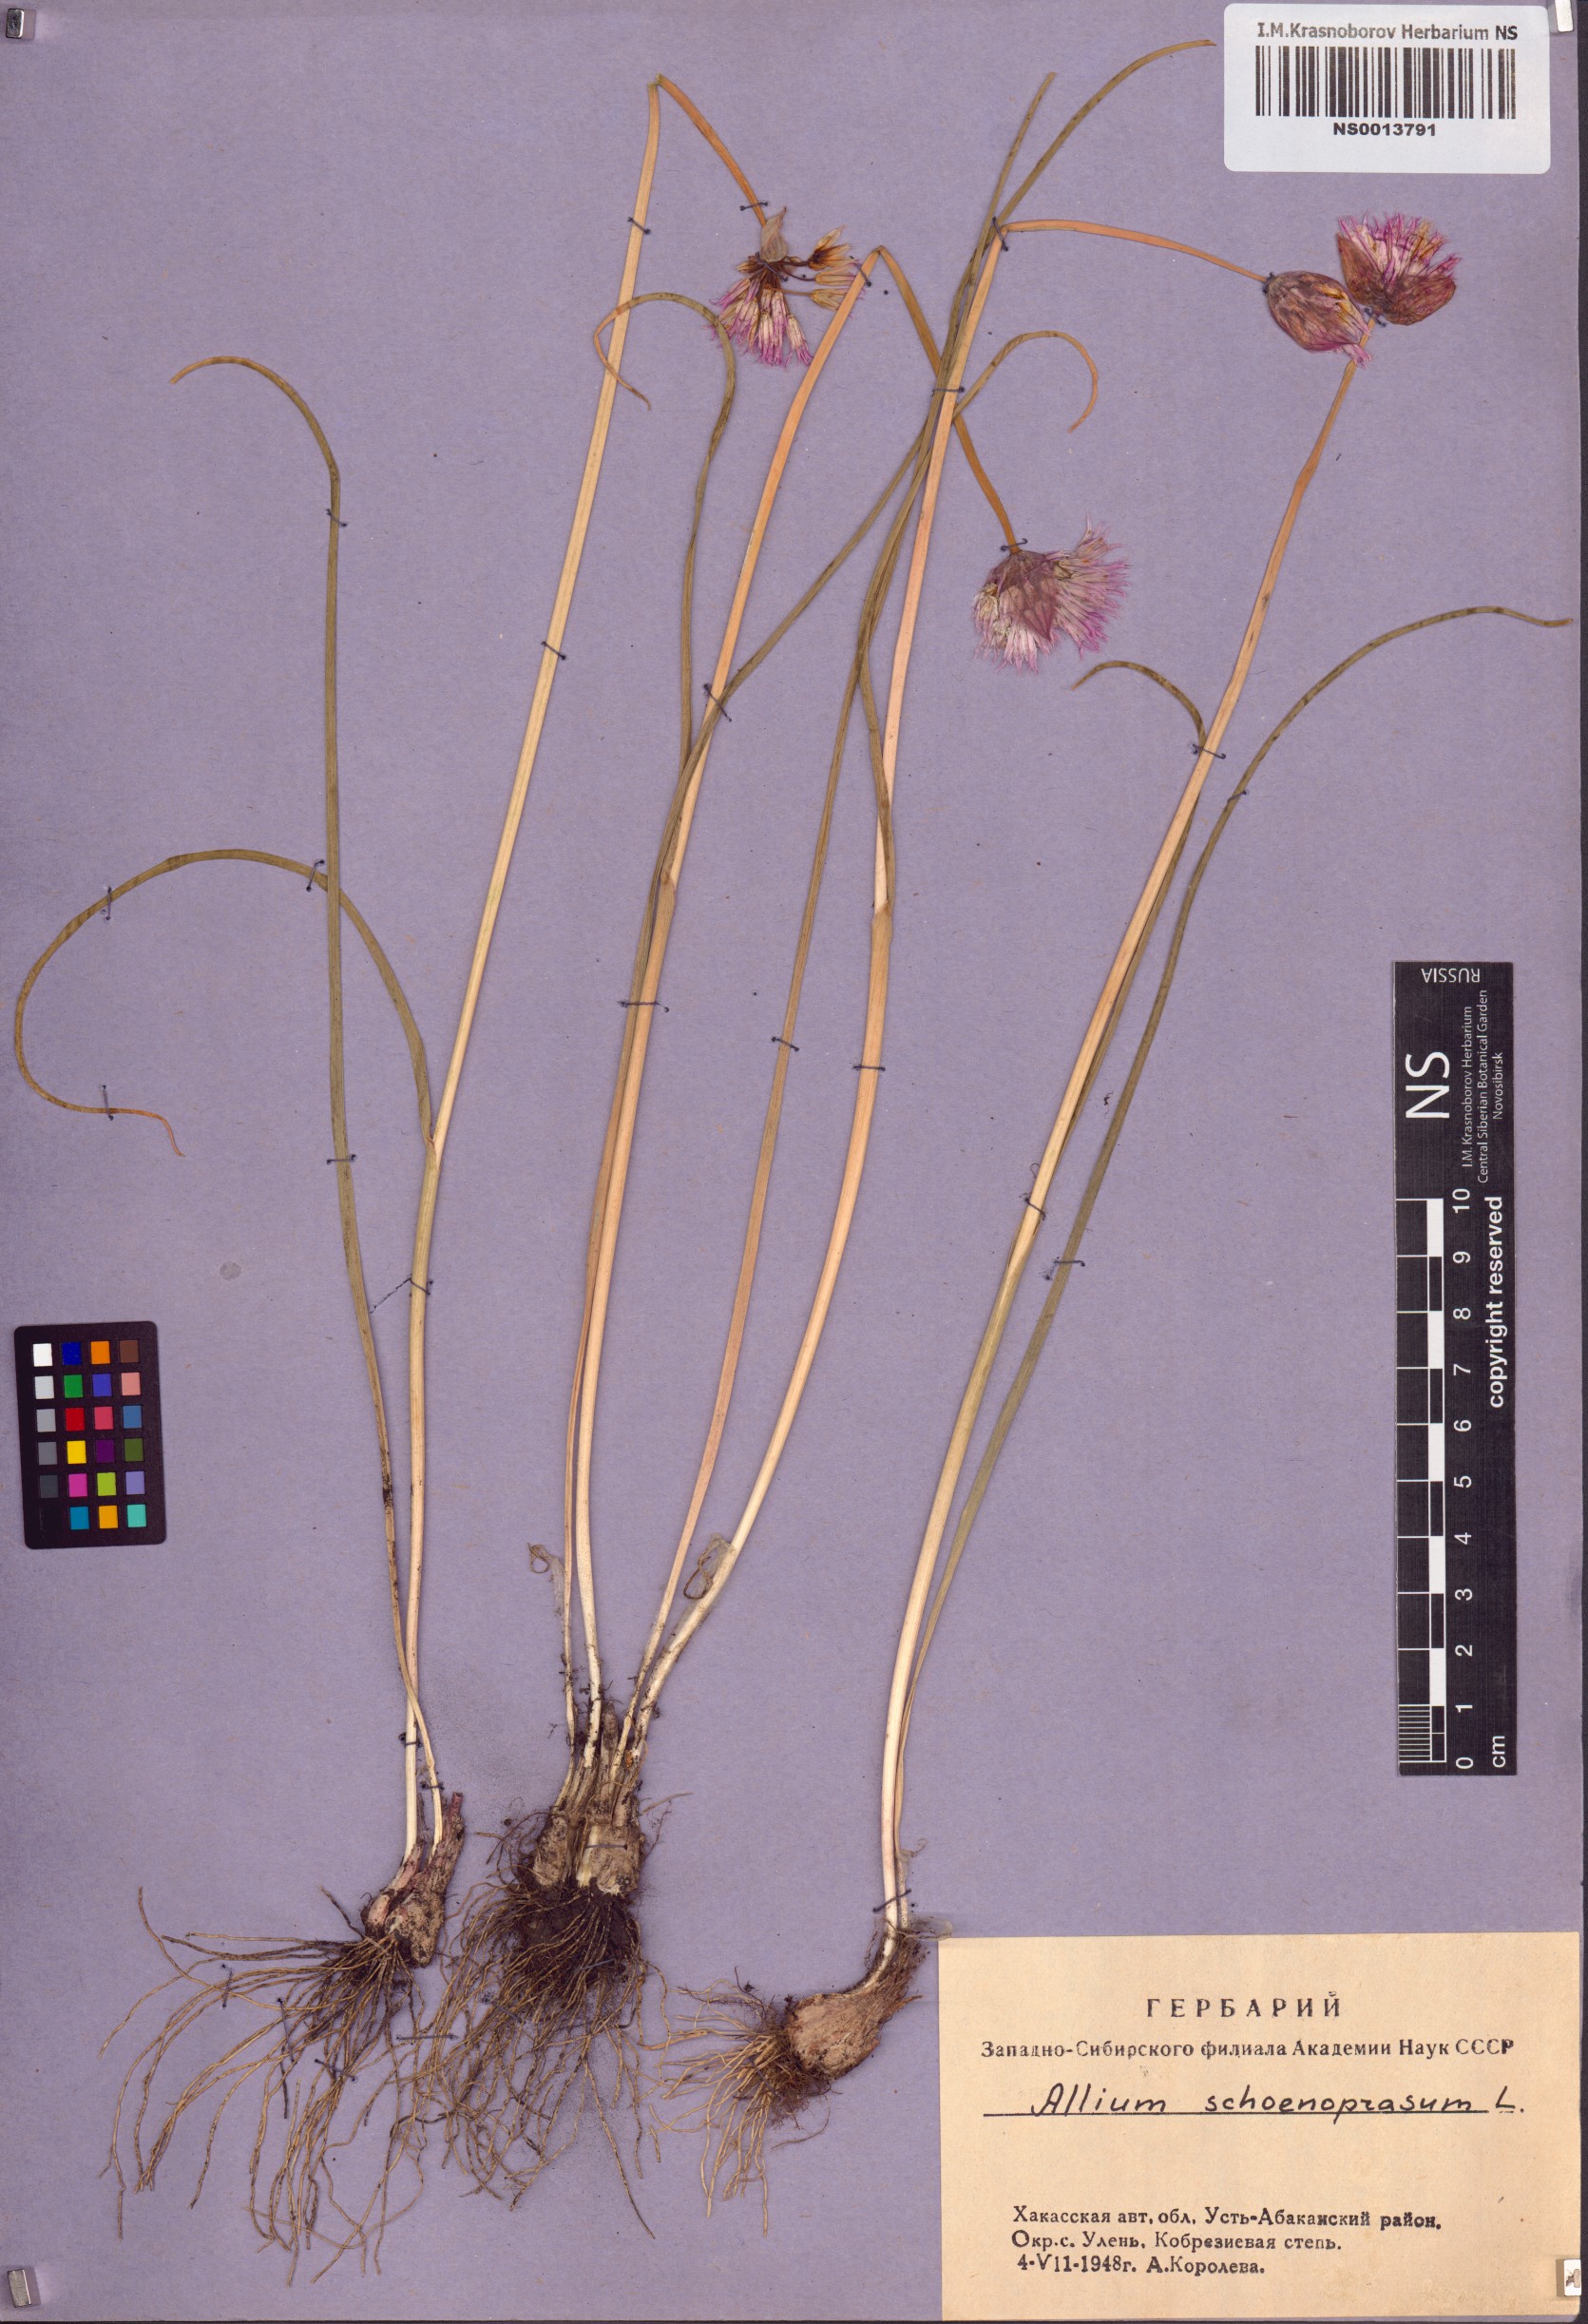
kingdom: Plantae
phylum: Tracheophyta
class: Liliopsida
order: Asparagales
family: Amaryllidaceae
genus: Allium
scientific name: Allium schoenoprasum
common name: Chives
